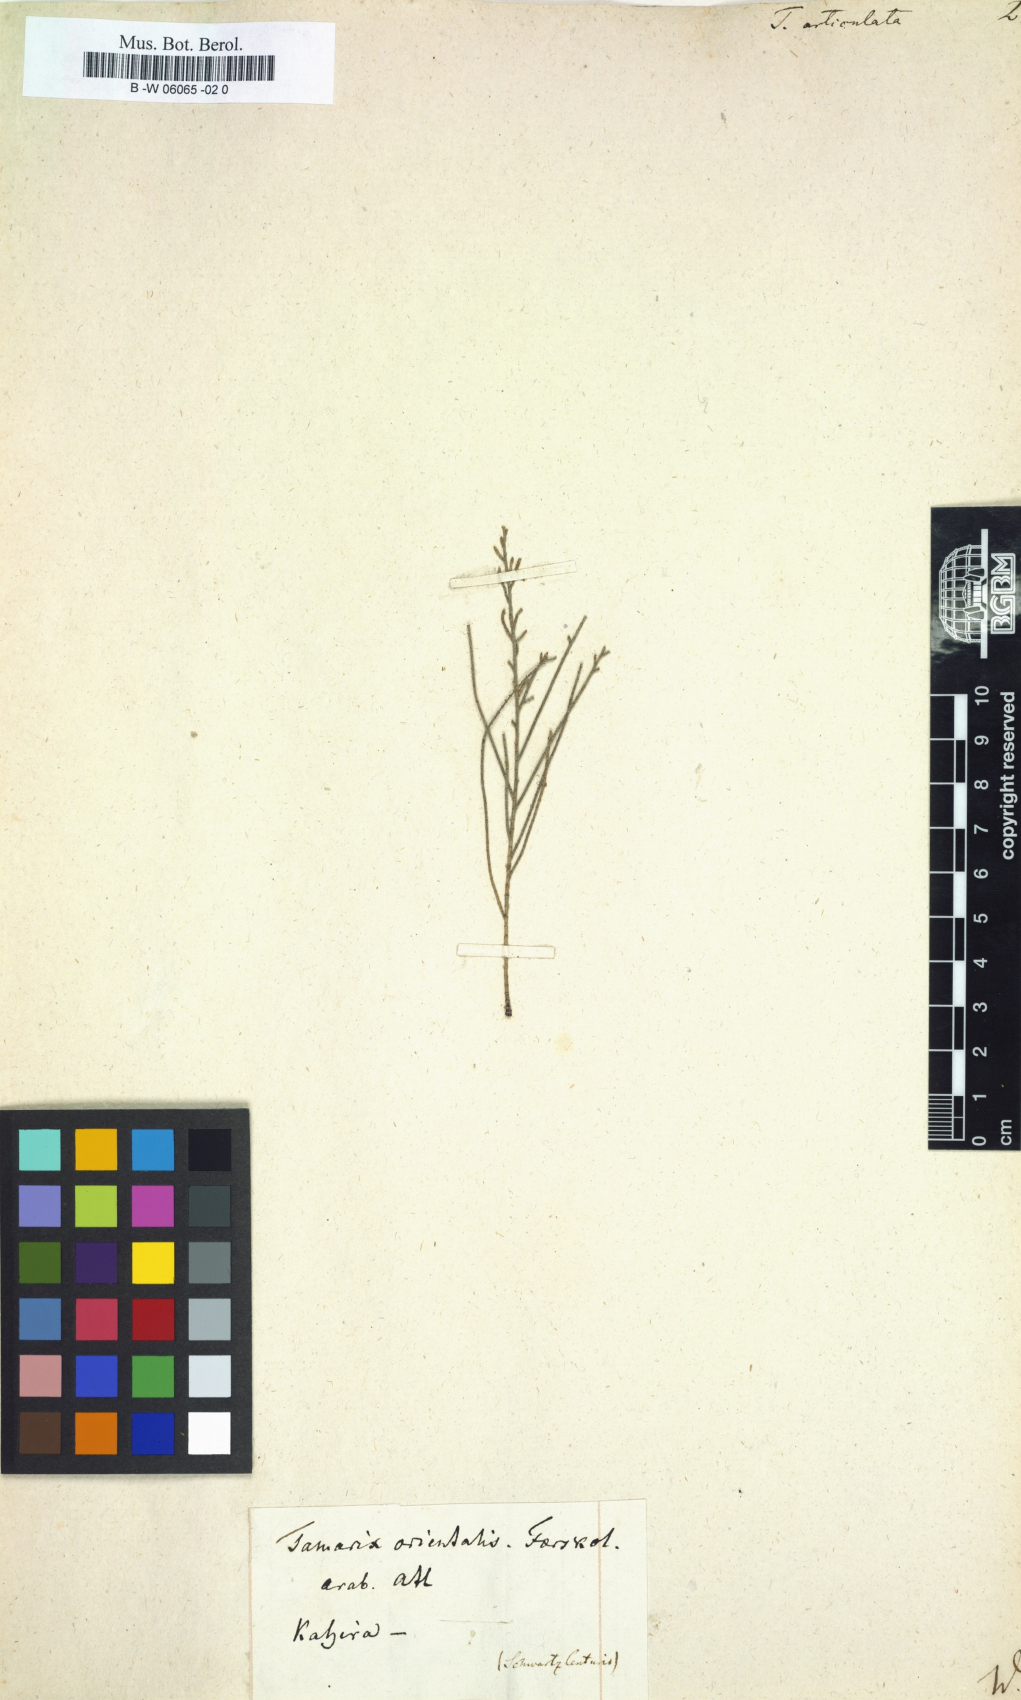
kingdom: Plantae
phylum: Tracheophyta
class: Magnoliopsida
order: Caryophyllales
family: Tamaricaceae
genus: Tamarix
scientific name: Tamarix aphylla
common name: Athel tamarisk
